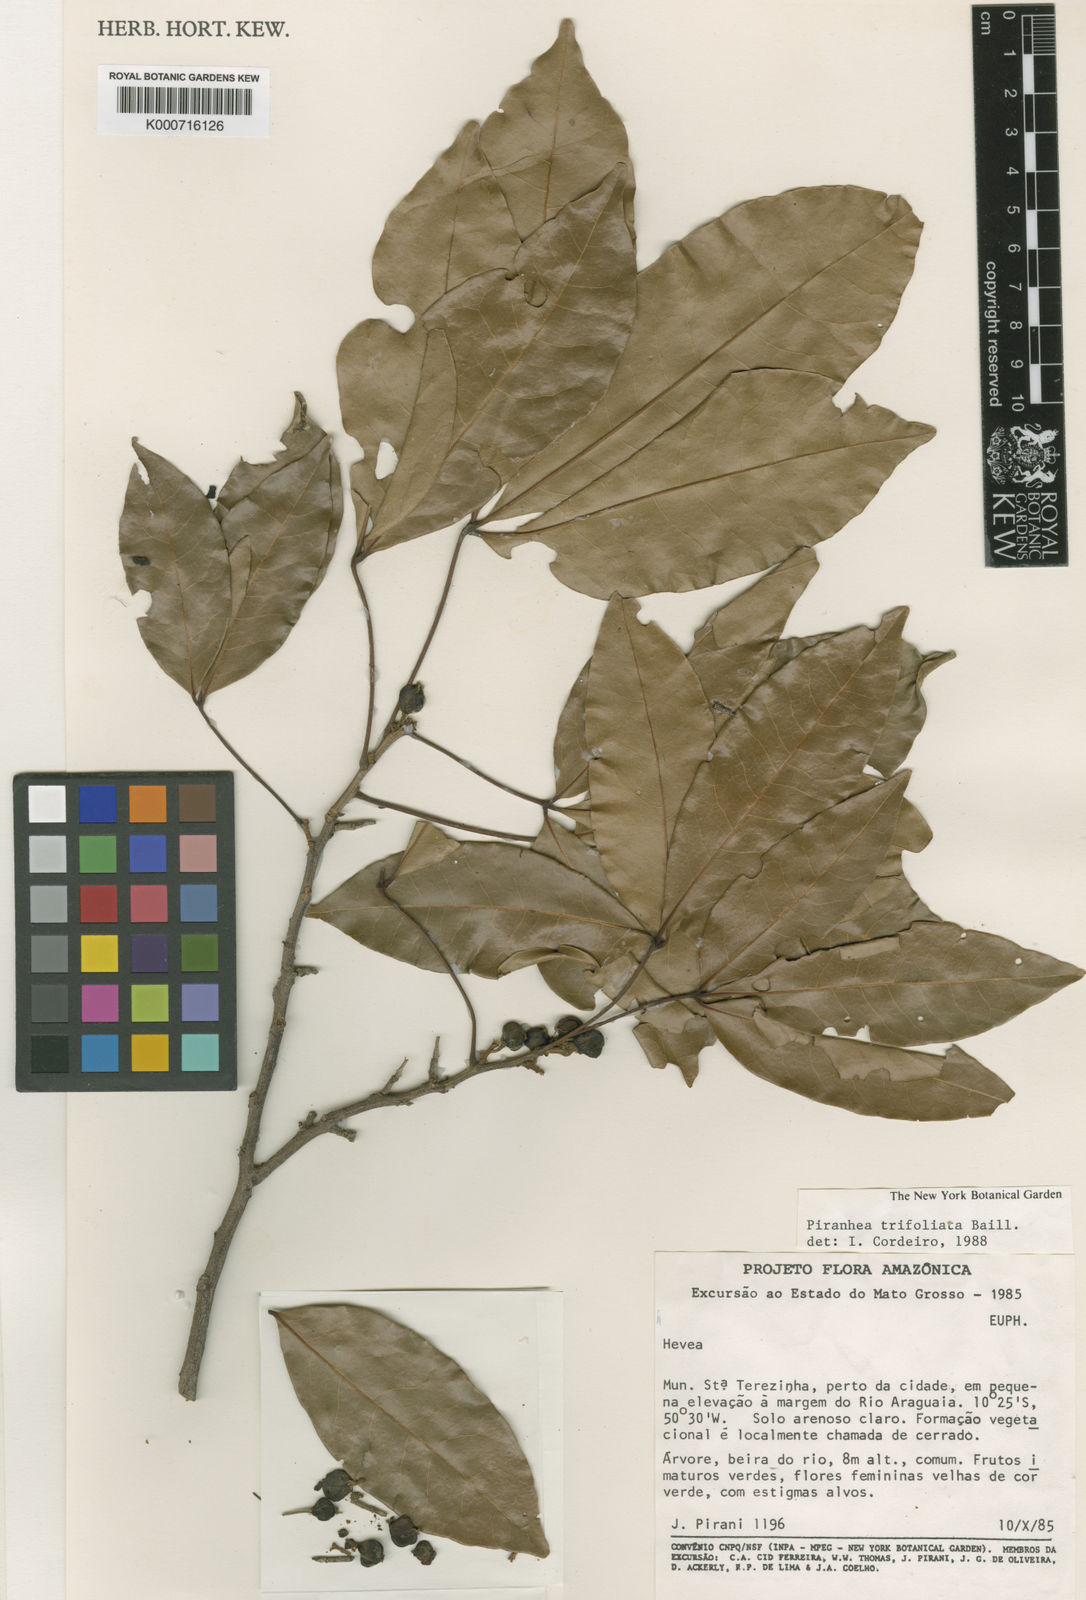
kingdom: Plantae
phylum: Tracheophyta
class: Magnoliopsida
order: Malpighiales
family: Picrodendraceae
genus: Piranhea
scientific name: Piranhea
